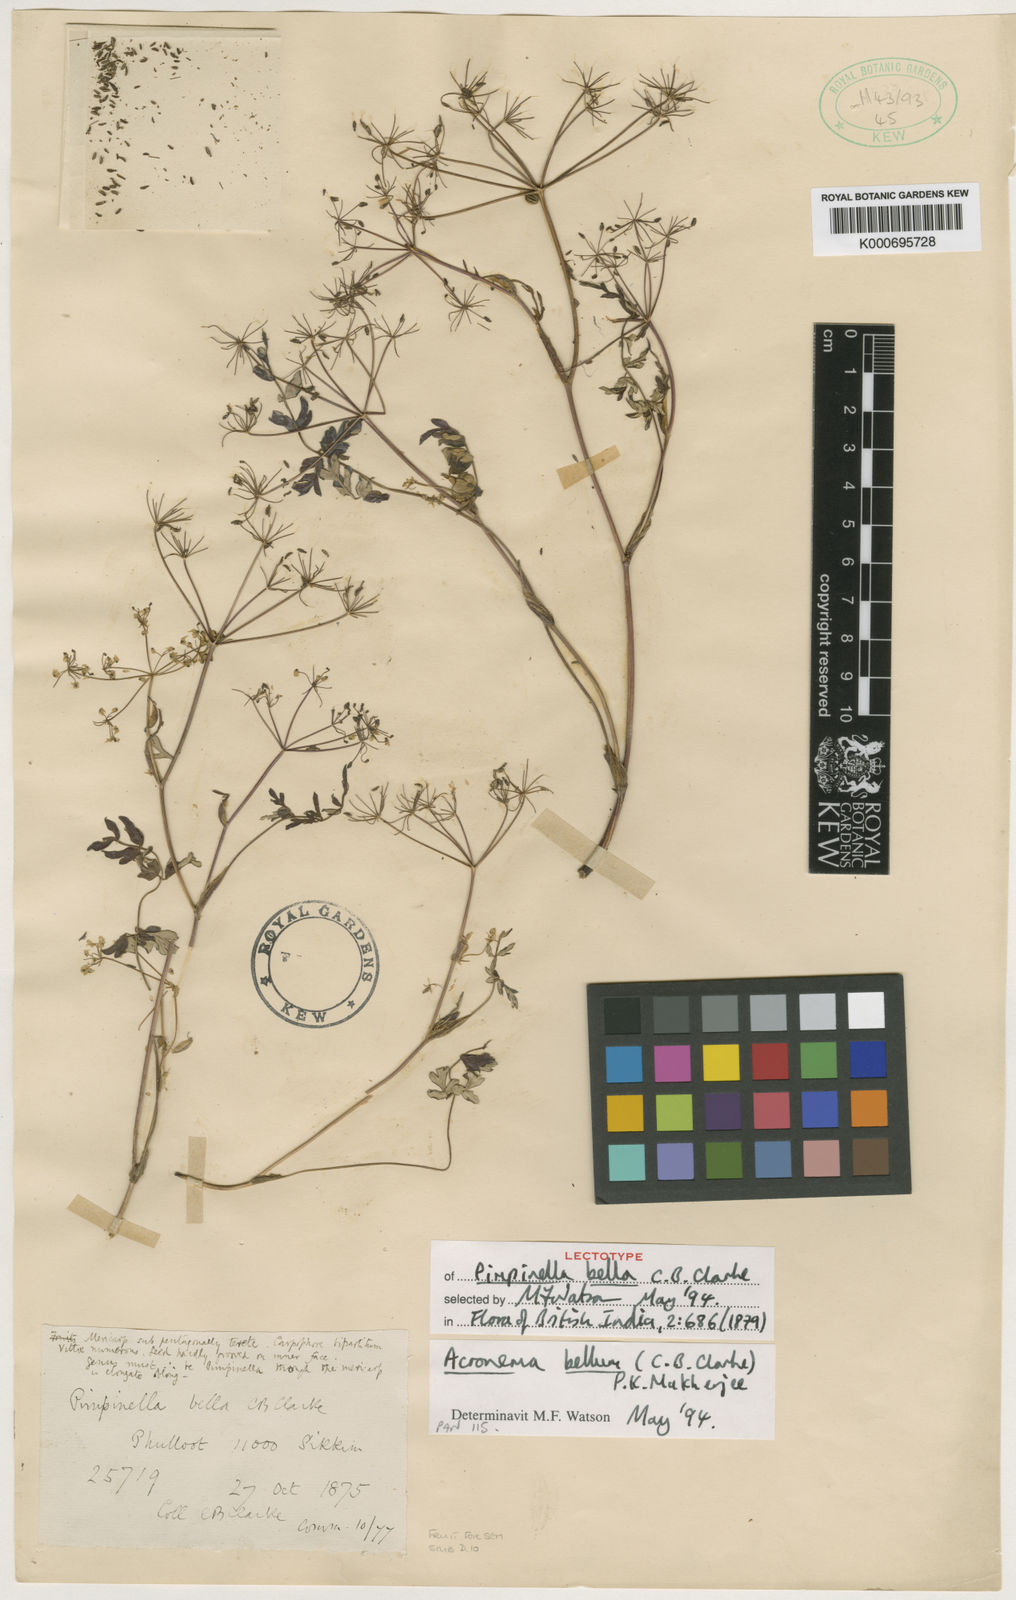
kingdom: Plantae
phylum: Tracheophyta
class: Magnoliopsida
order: Apiales
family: Apiaceae
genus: Sinocarum
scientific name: Sinocarum bellum
